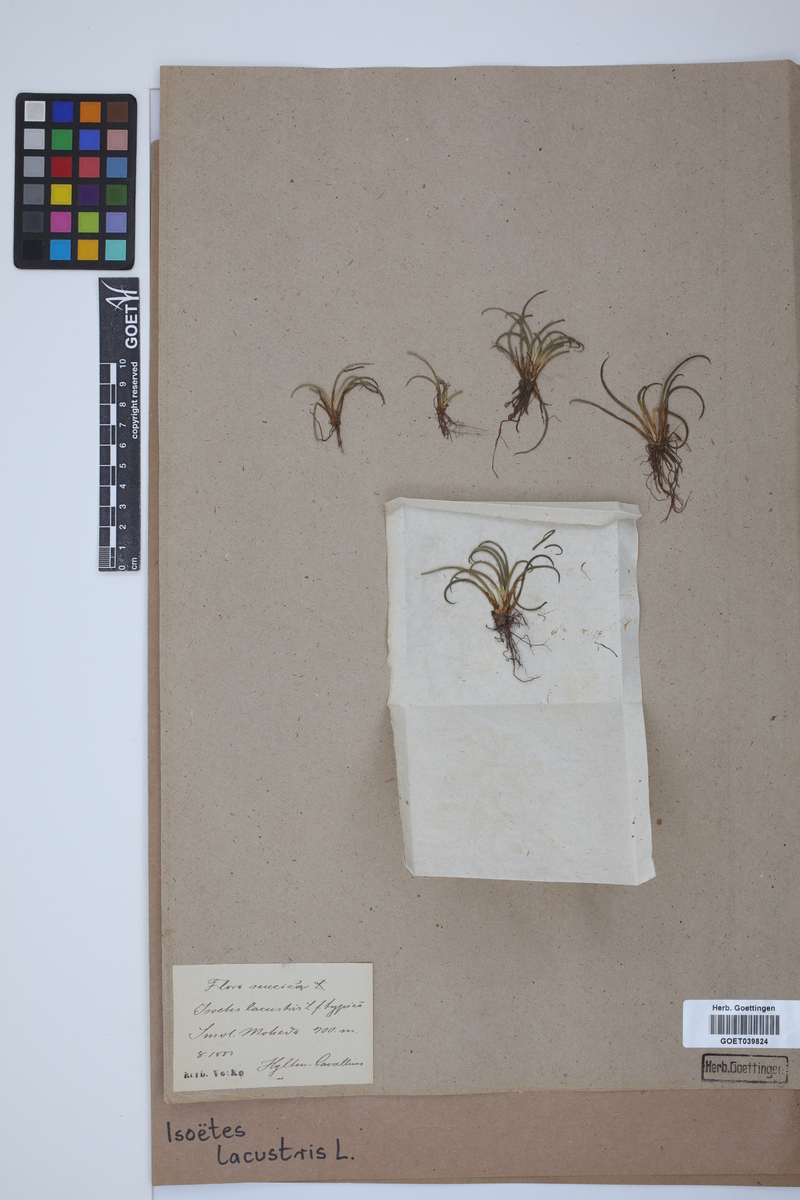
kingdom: Plantae
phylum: Tracheophyta
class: Lycopodiopsida
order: Isoetales
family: Isoetaceae
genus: Isoetes
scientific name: Isoetes lacustris
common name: Common quillwort
